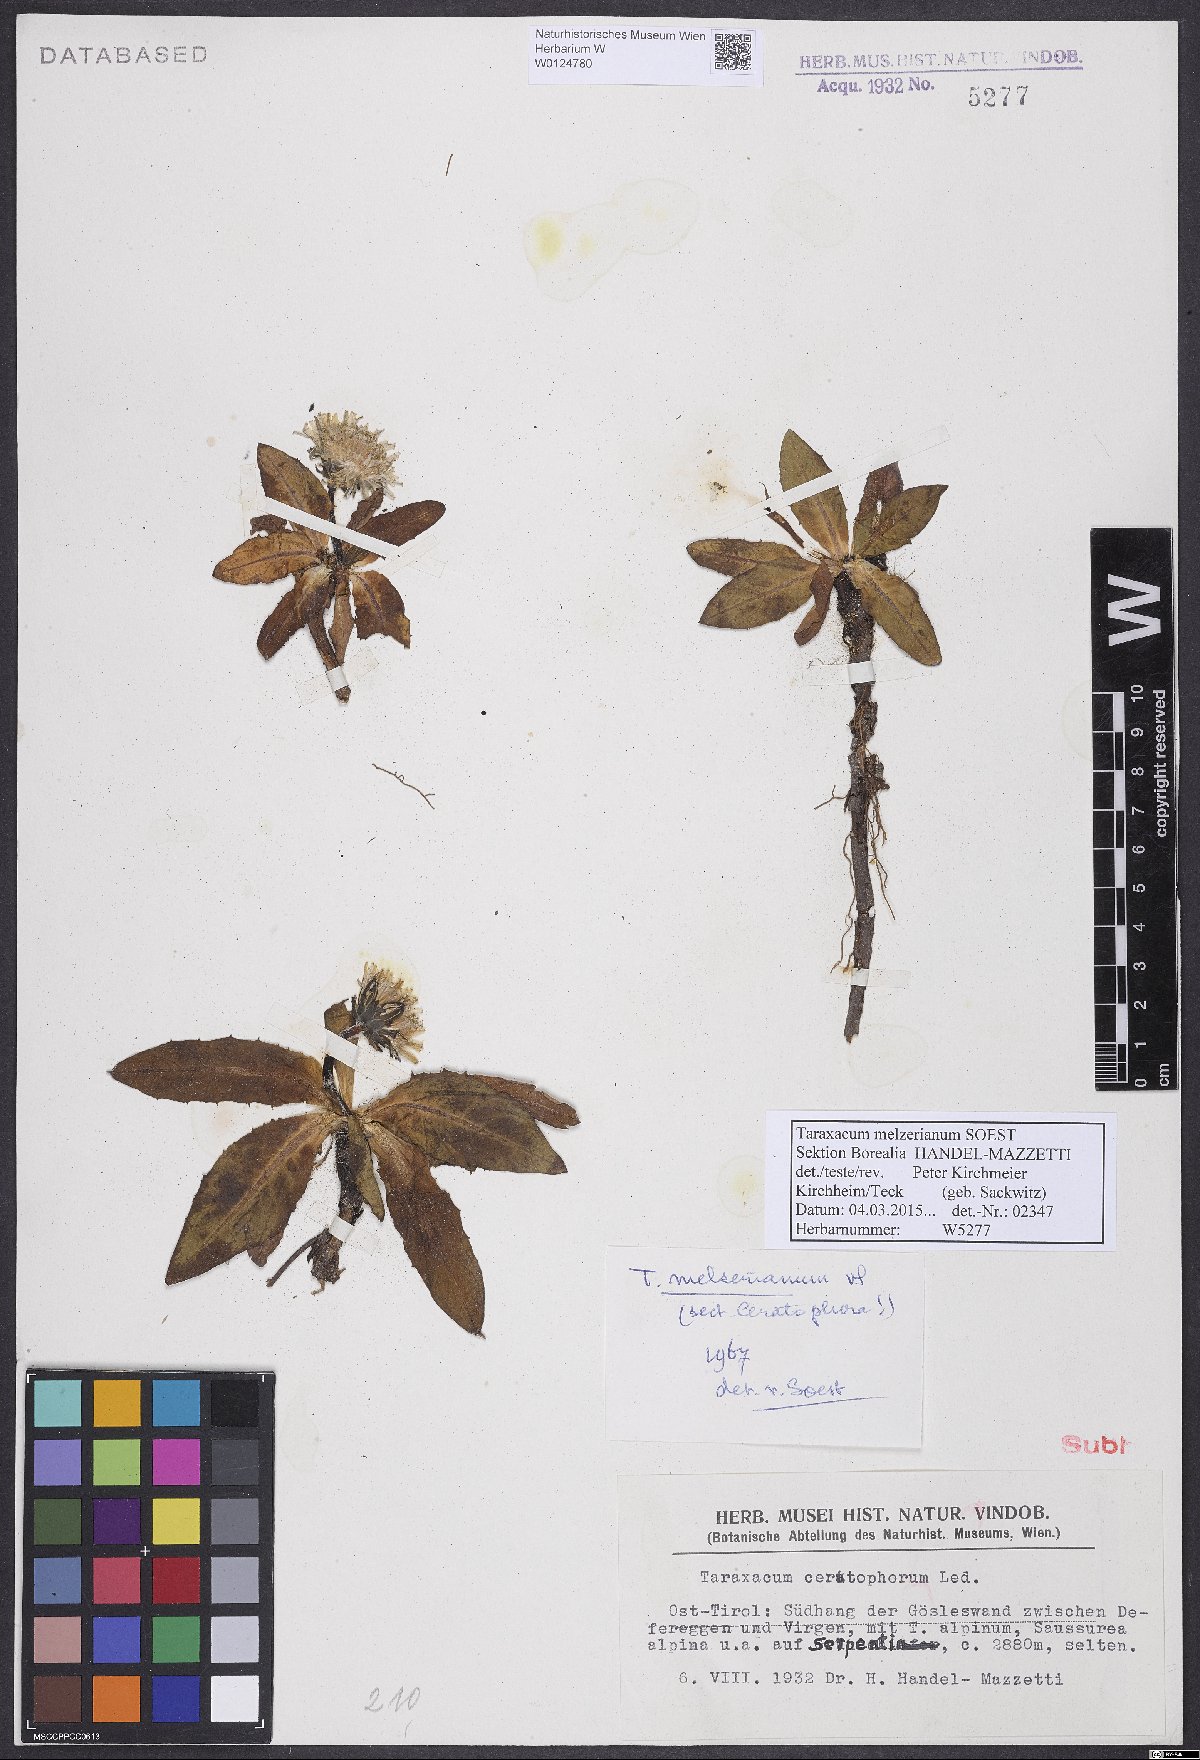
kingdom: Plantae
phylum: Tracheophyta
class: Magnoliopsida
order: Asterales
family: Asteraceae
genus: Taraxacum
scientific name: Taraxacum melzerianum
